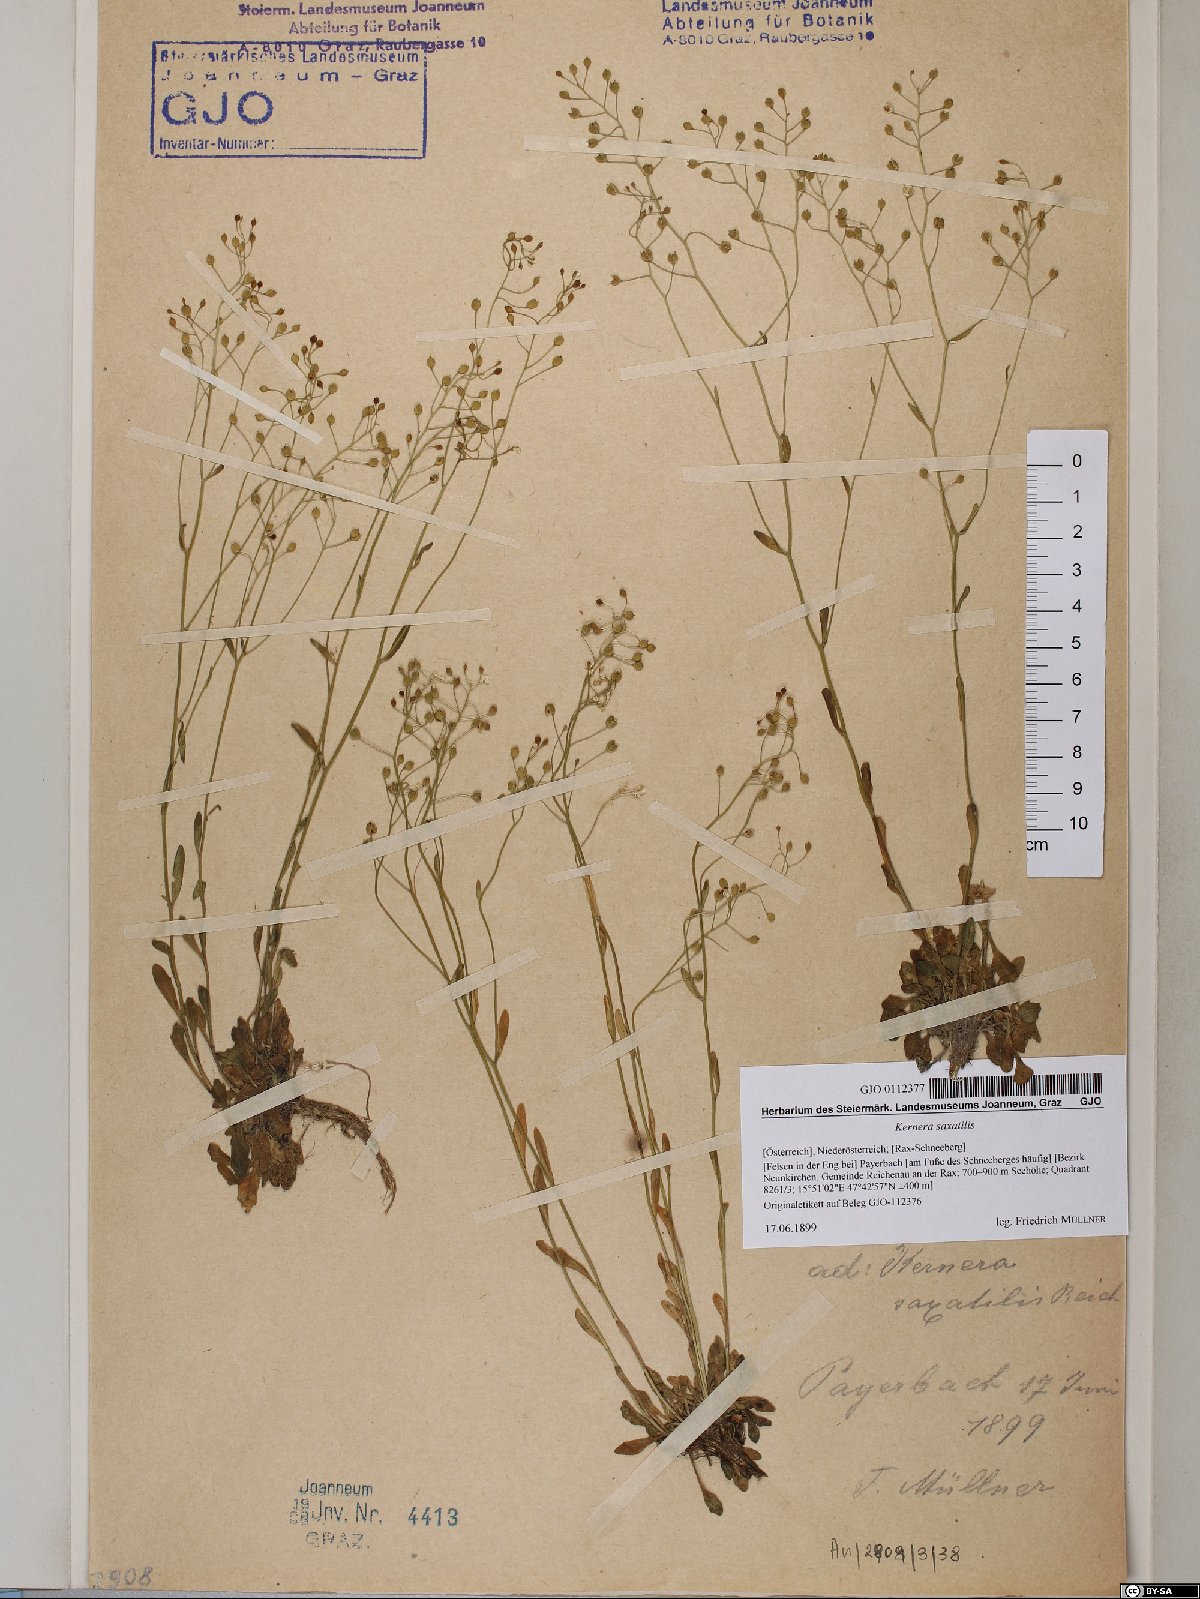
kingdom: Plantae
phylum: Tracheophyta
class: Magnoliopsida
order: Brassicales
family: Brassicaceae
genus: Kernera
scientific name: Kernera saxatilis
